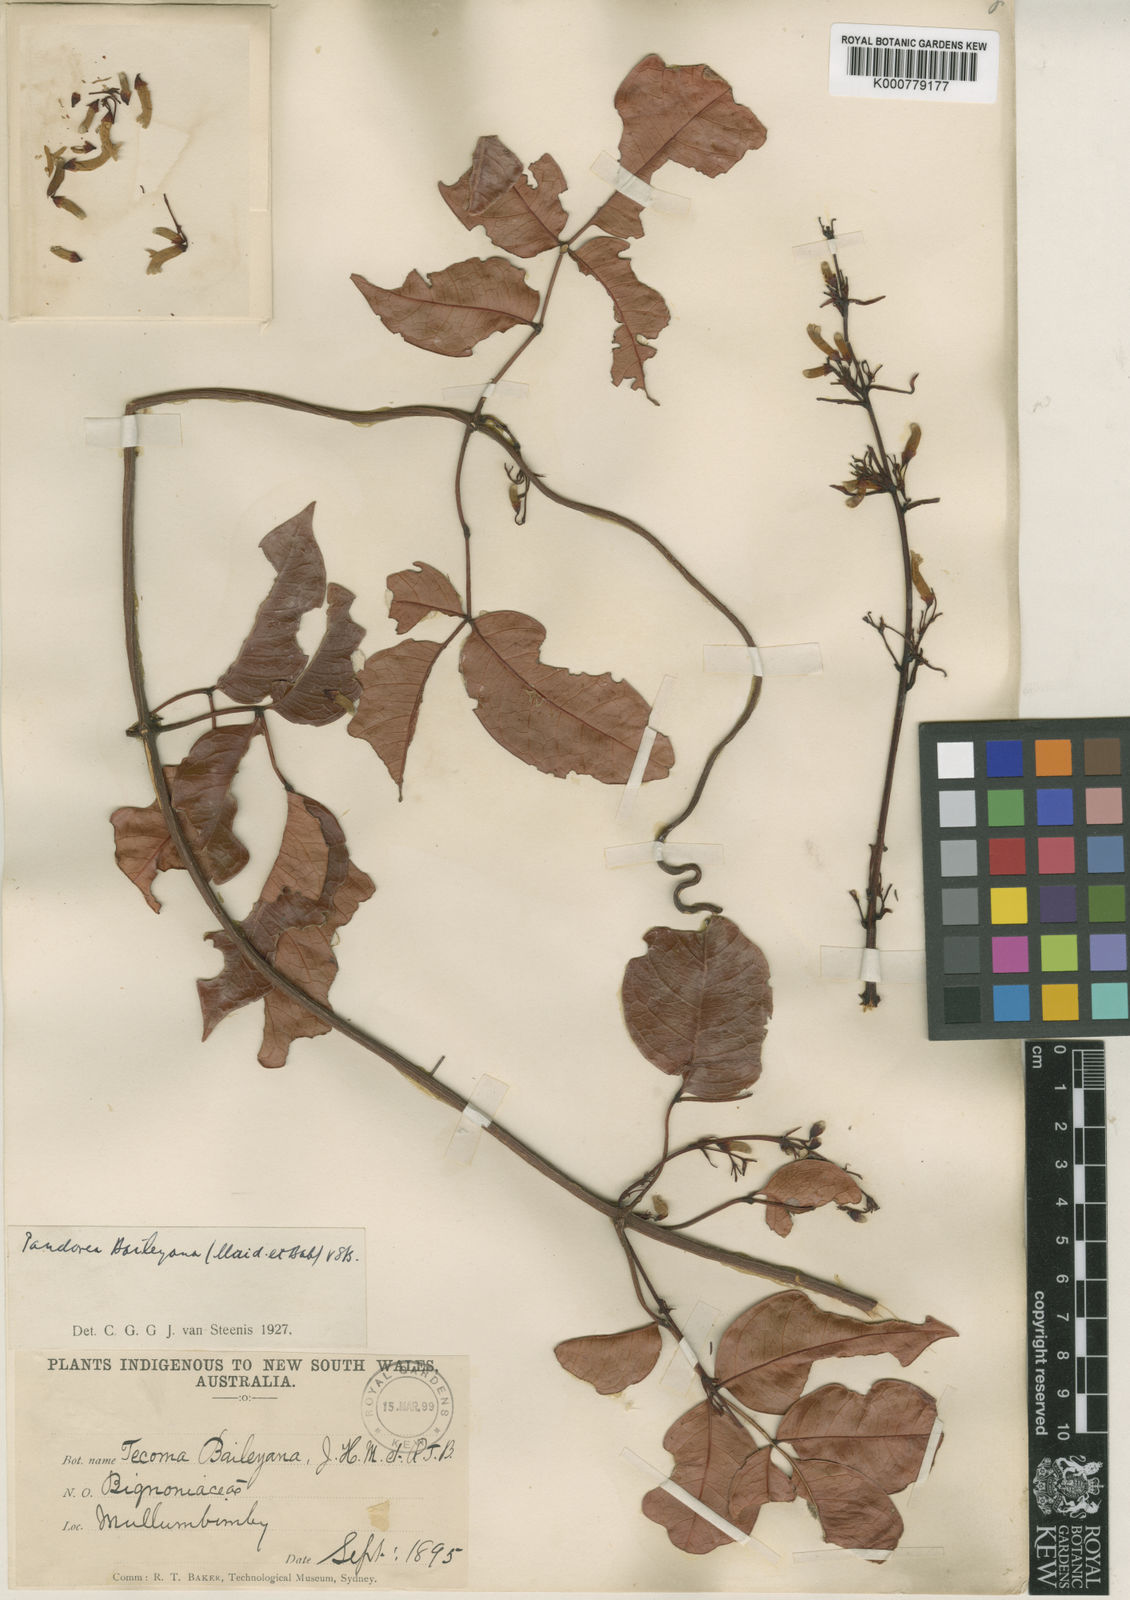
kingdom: Plantae
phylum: Tracheophyta
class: Magnoliopsida
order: Lamiales
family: Bignoniaceae
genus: Pandorea
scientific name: Pandorea baileyana
